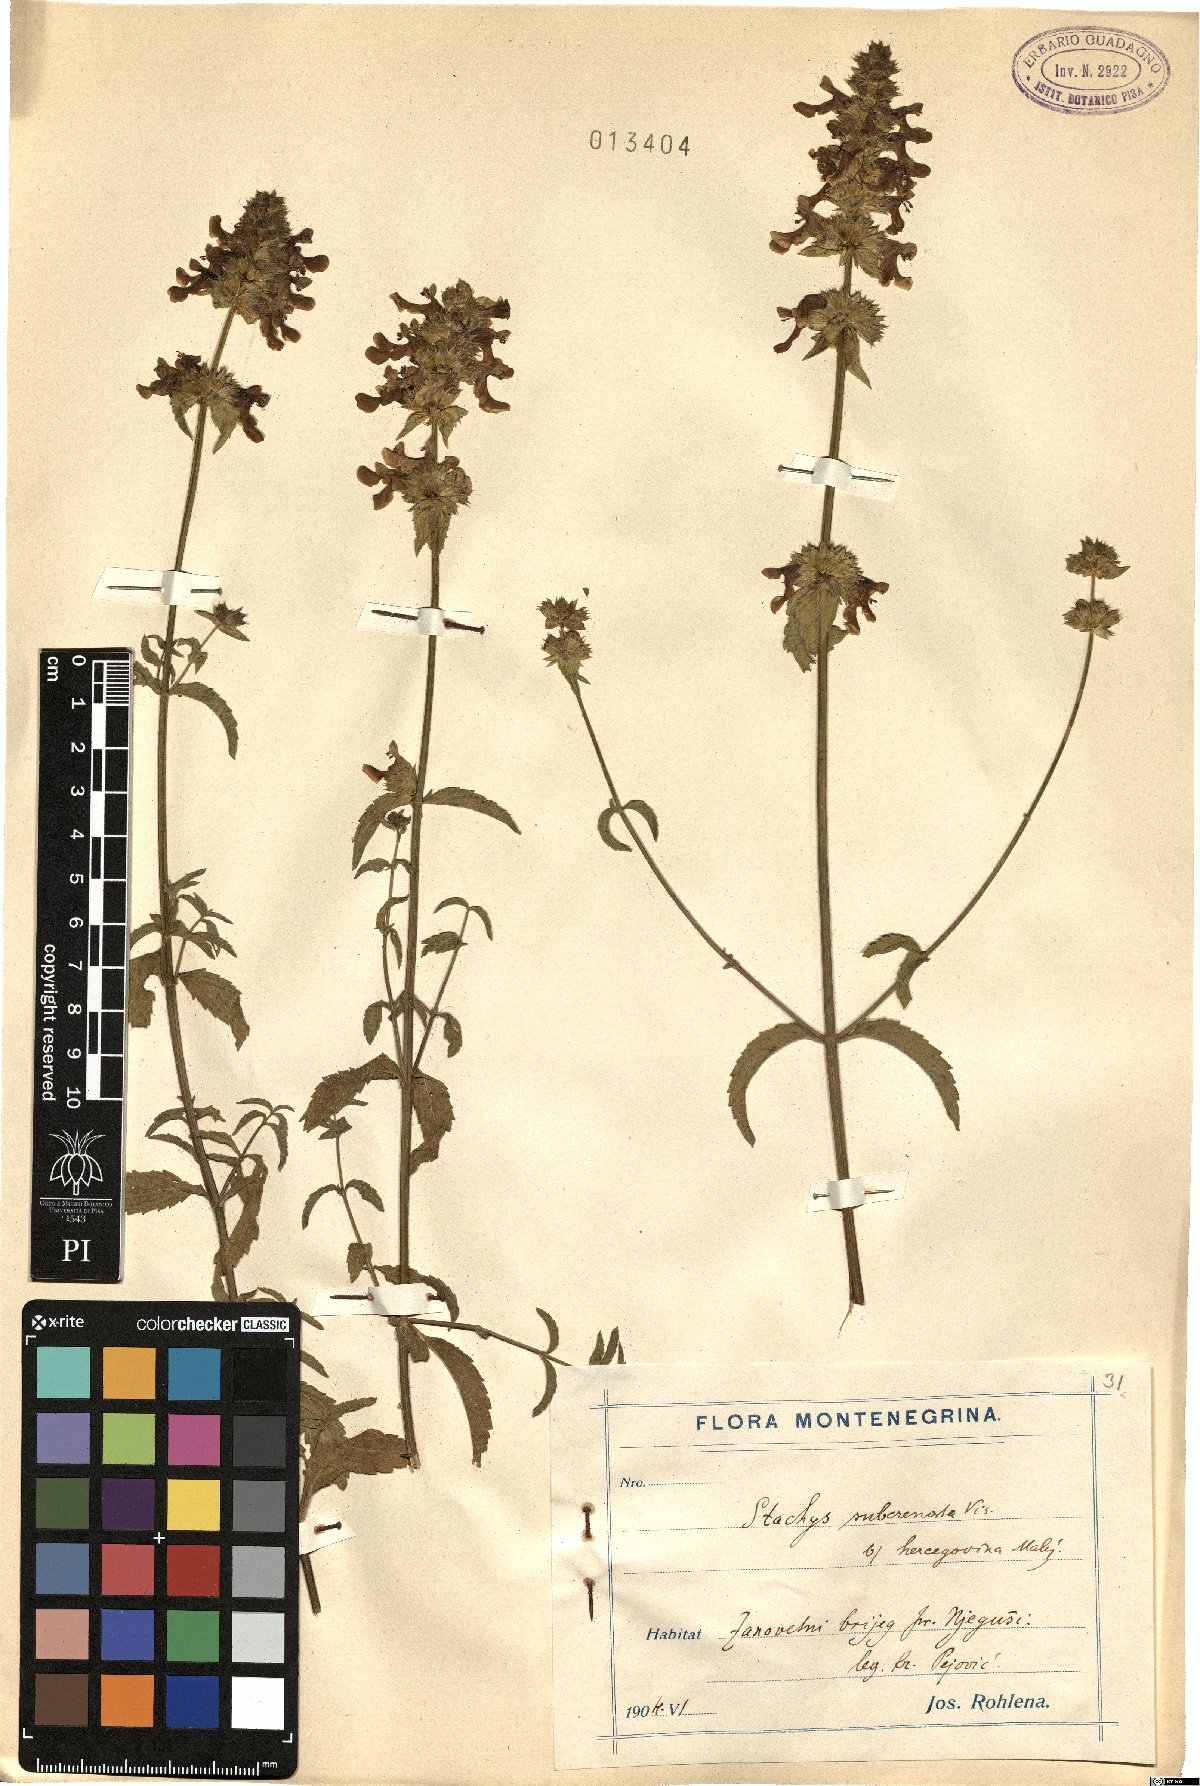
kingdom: Plantae
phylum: Tracheophyta
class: Magnoliopsida
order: Lamiales
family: Lamiaceae
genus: Stachys
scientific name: Stachys recta
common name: Perennial yellow-woundwort
